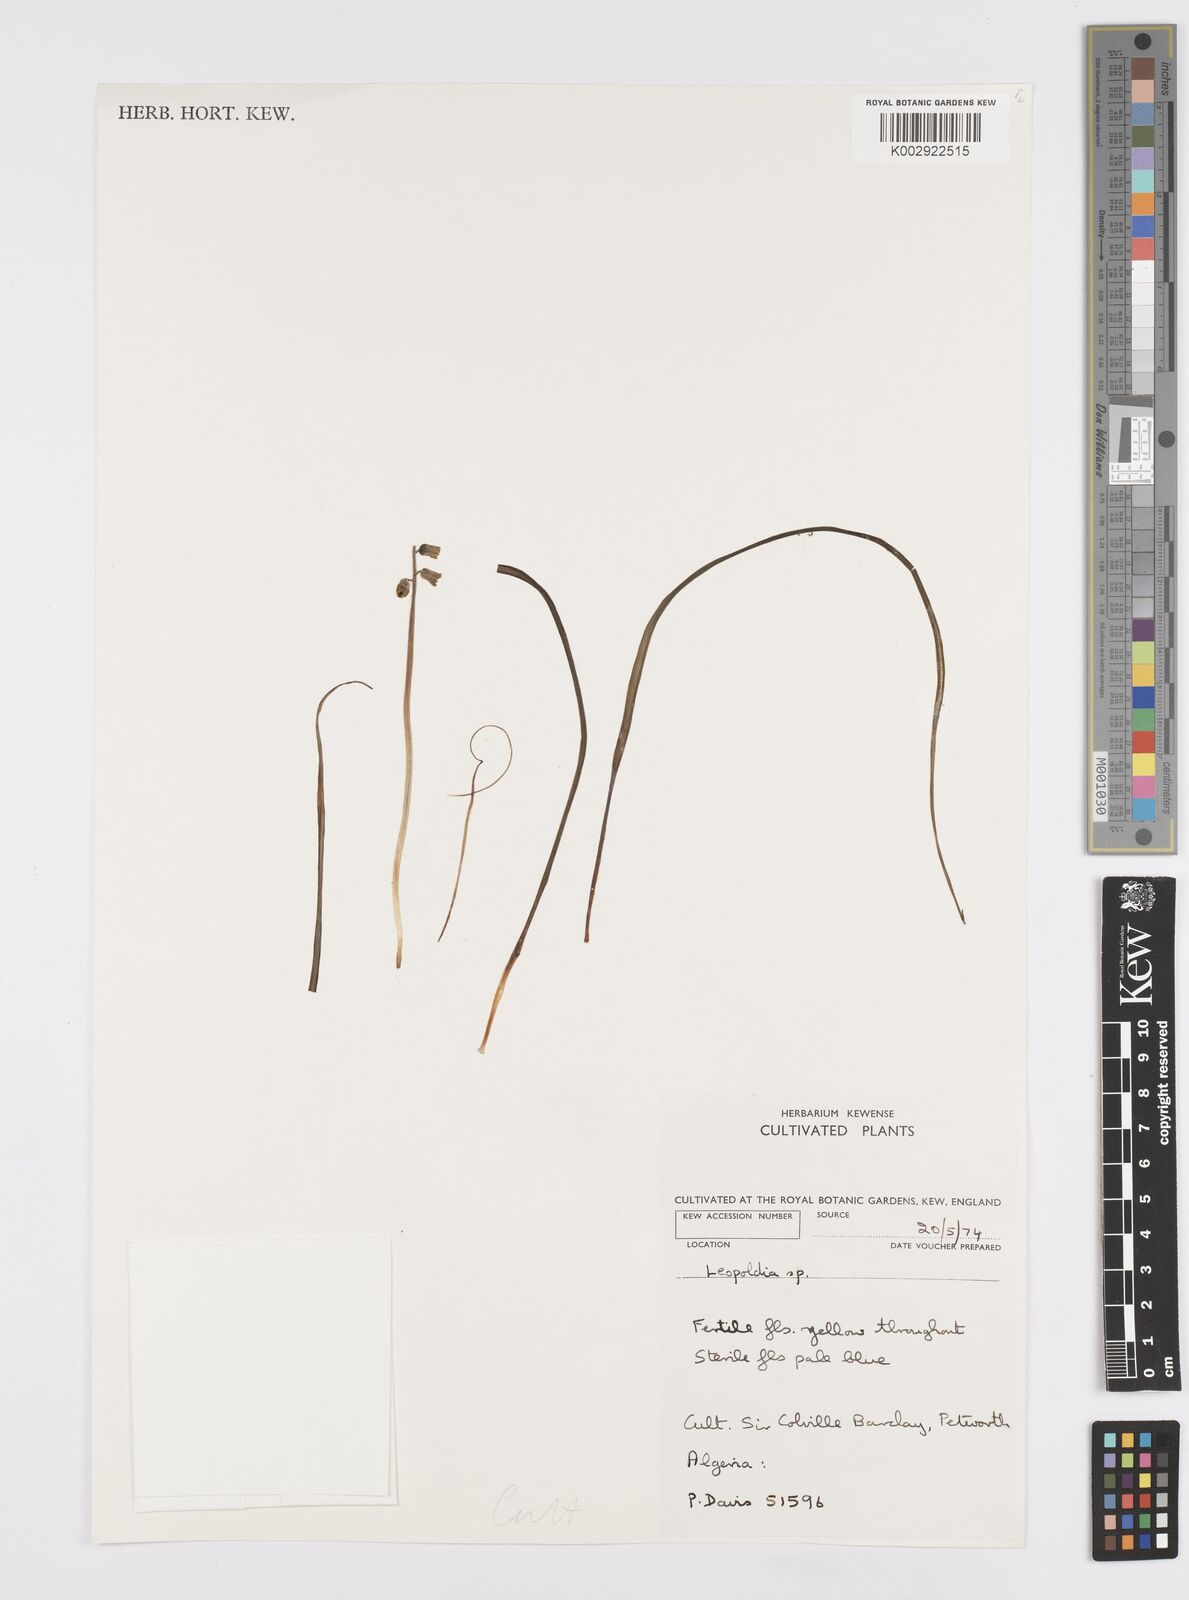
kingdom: Animalia
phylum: Mollusca
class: Cephalopoda
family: Neocomitidae
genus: Leopoldia
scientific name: Leopoldia
